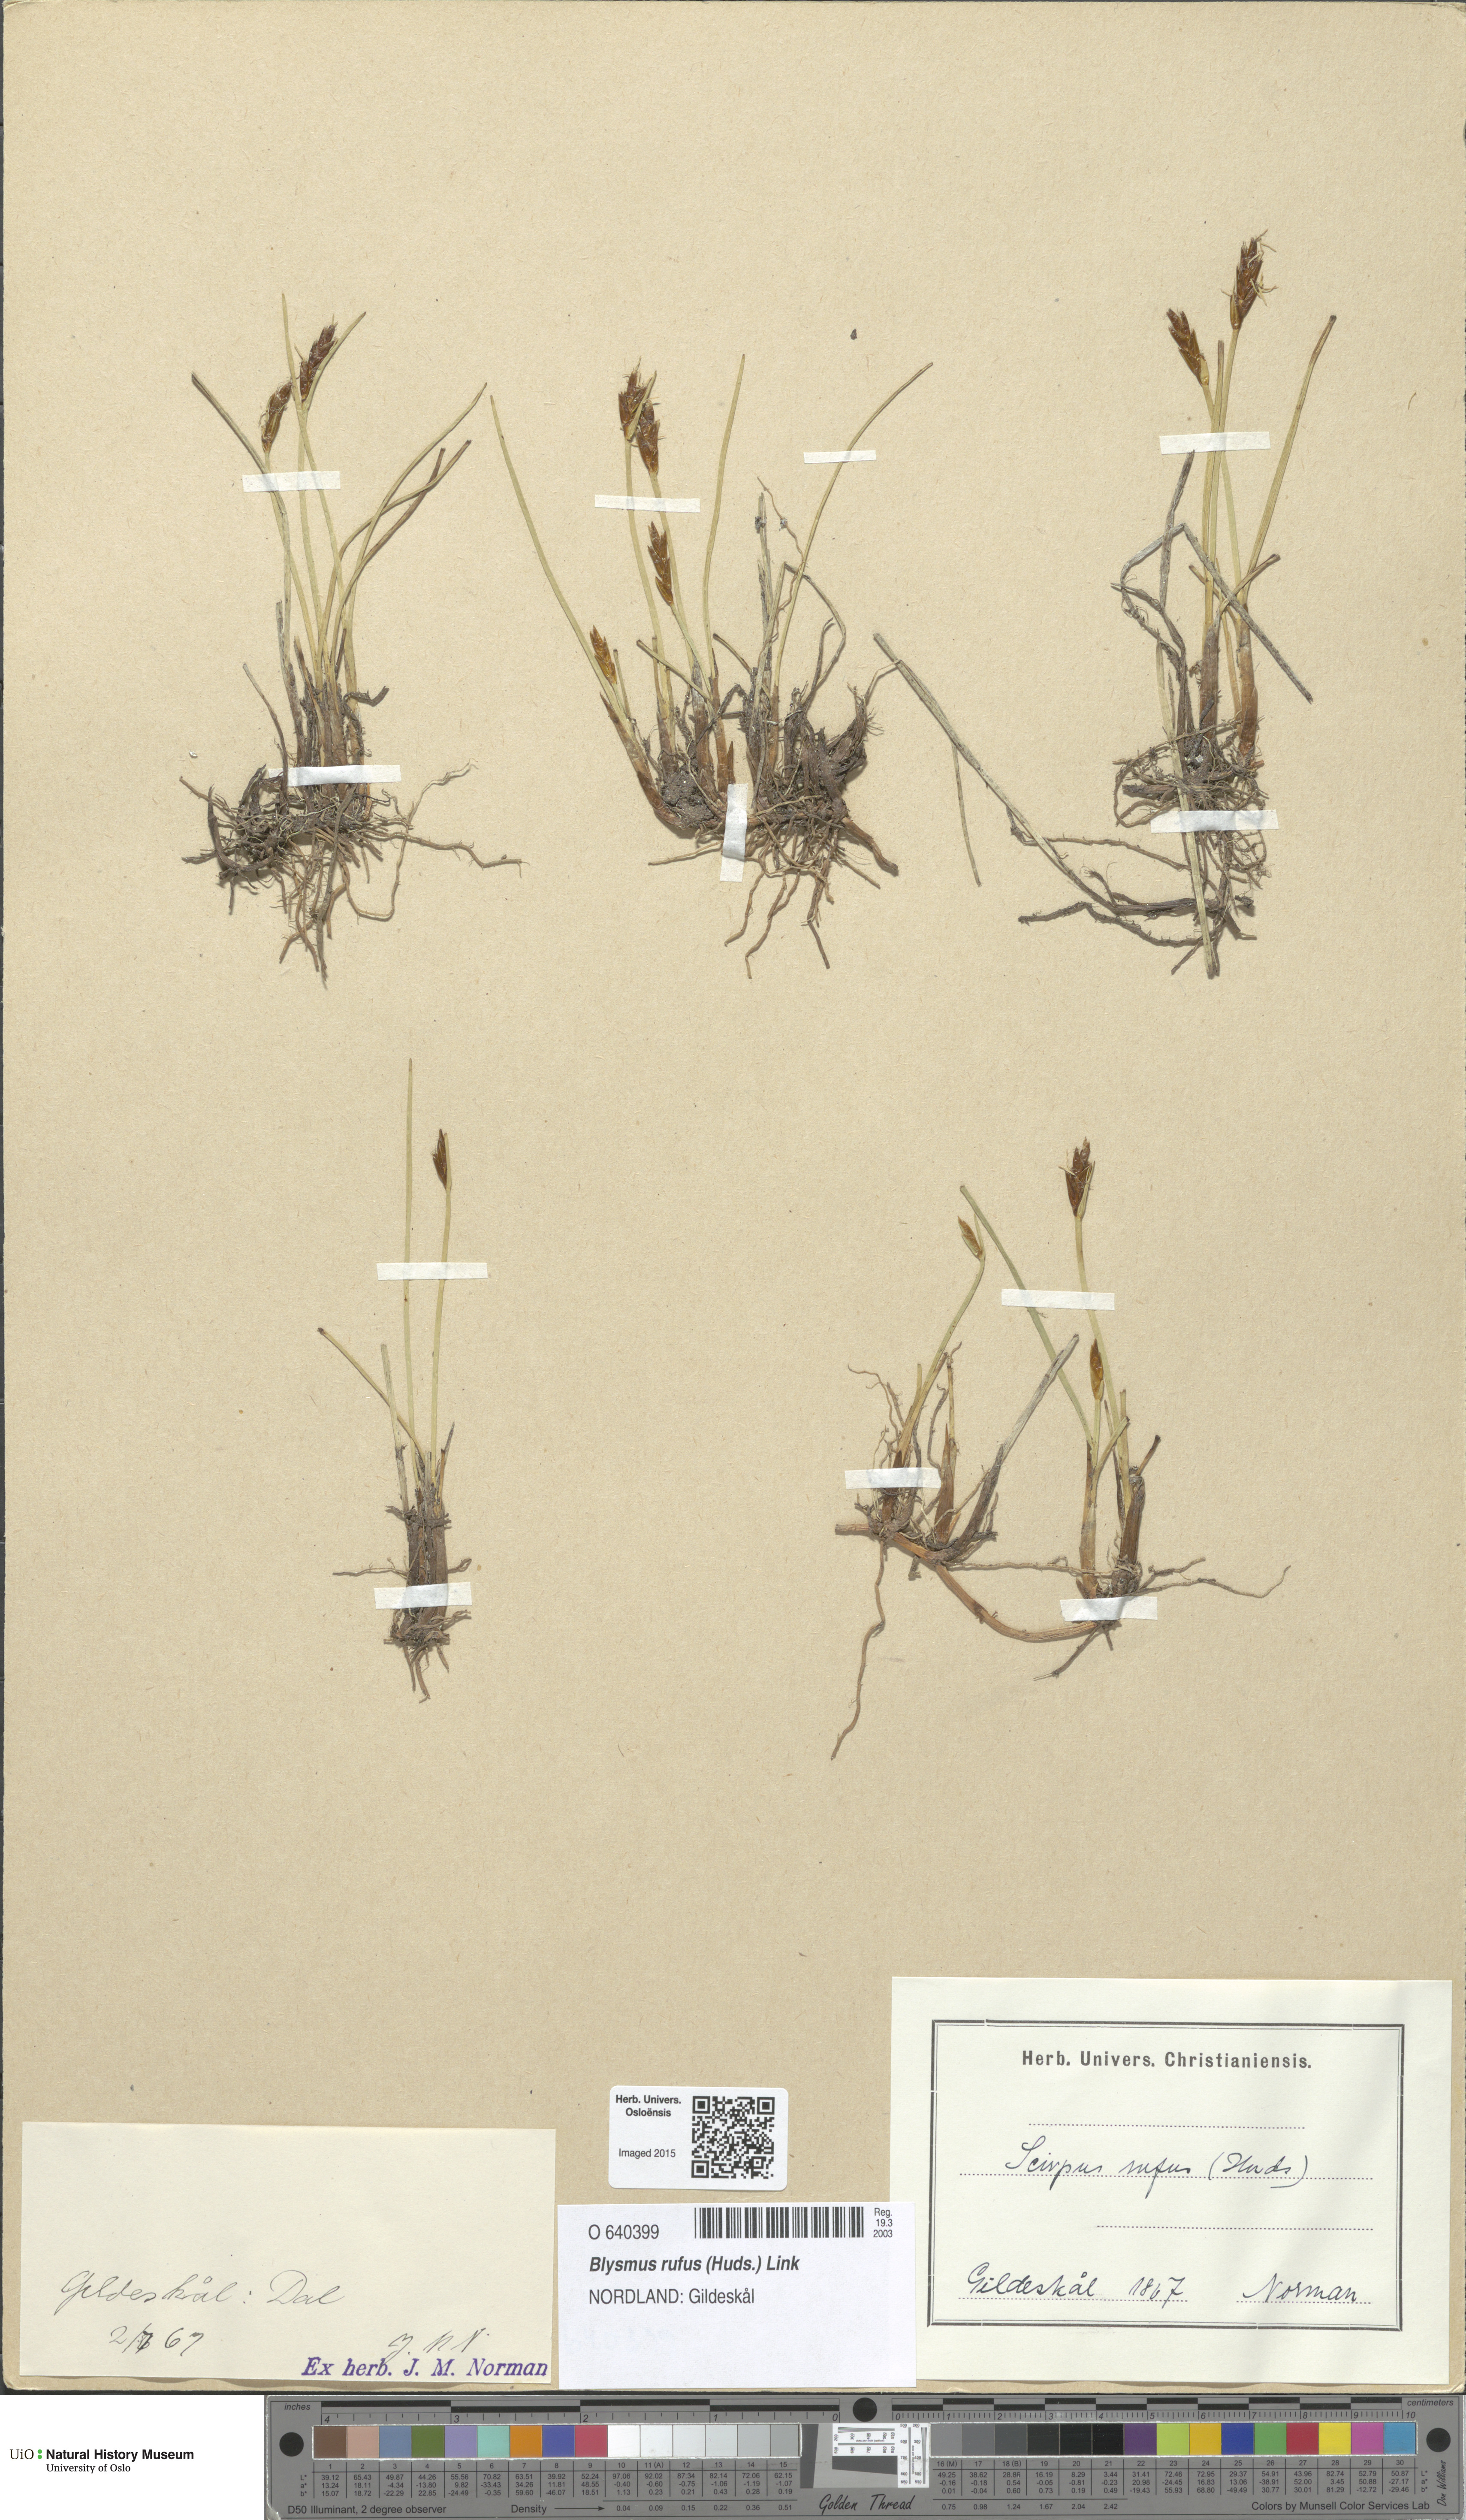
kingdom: Plantae
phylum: Tracheophyta
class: Liliopsida
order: Poales
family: Cyperaceae
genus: Blysmus
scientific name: Blysmus rufus
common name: Saltmarsh flat-sedge
